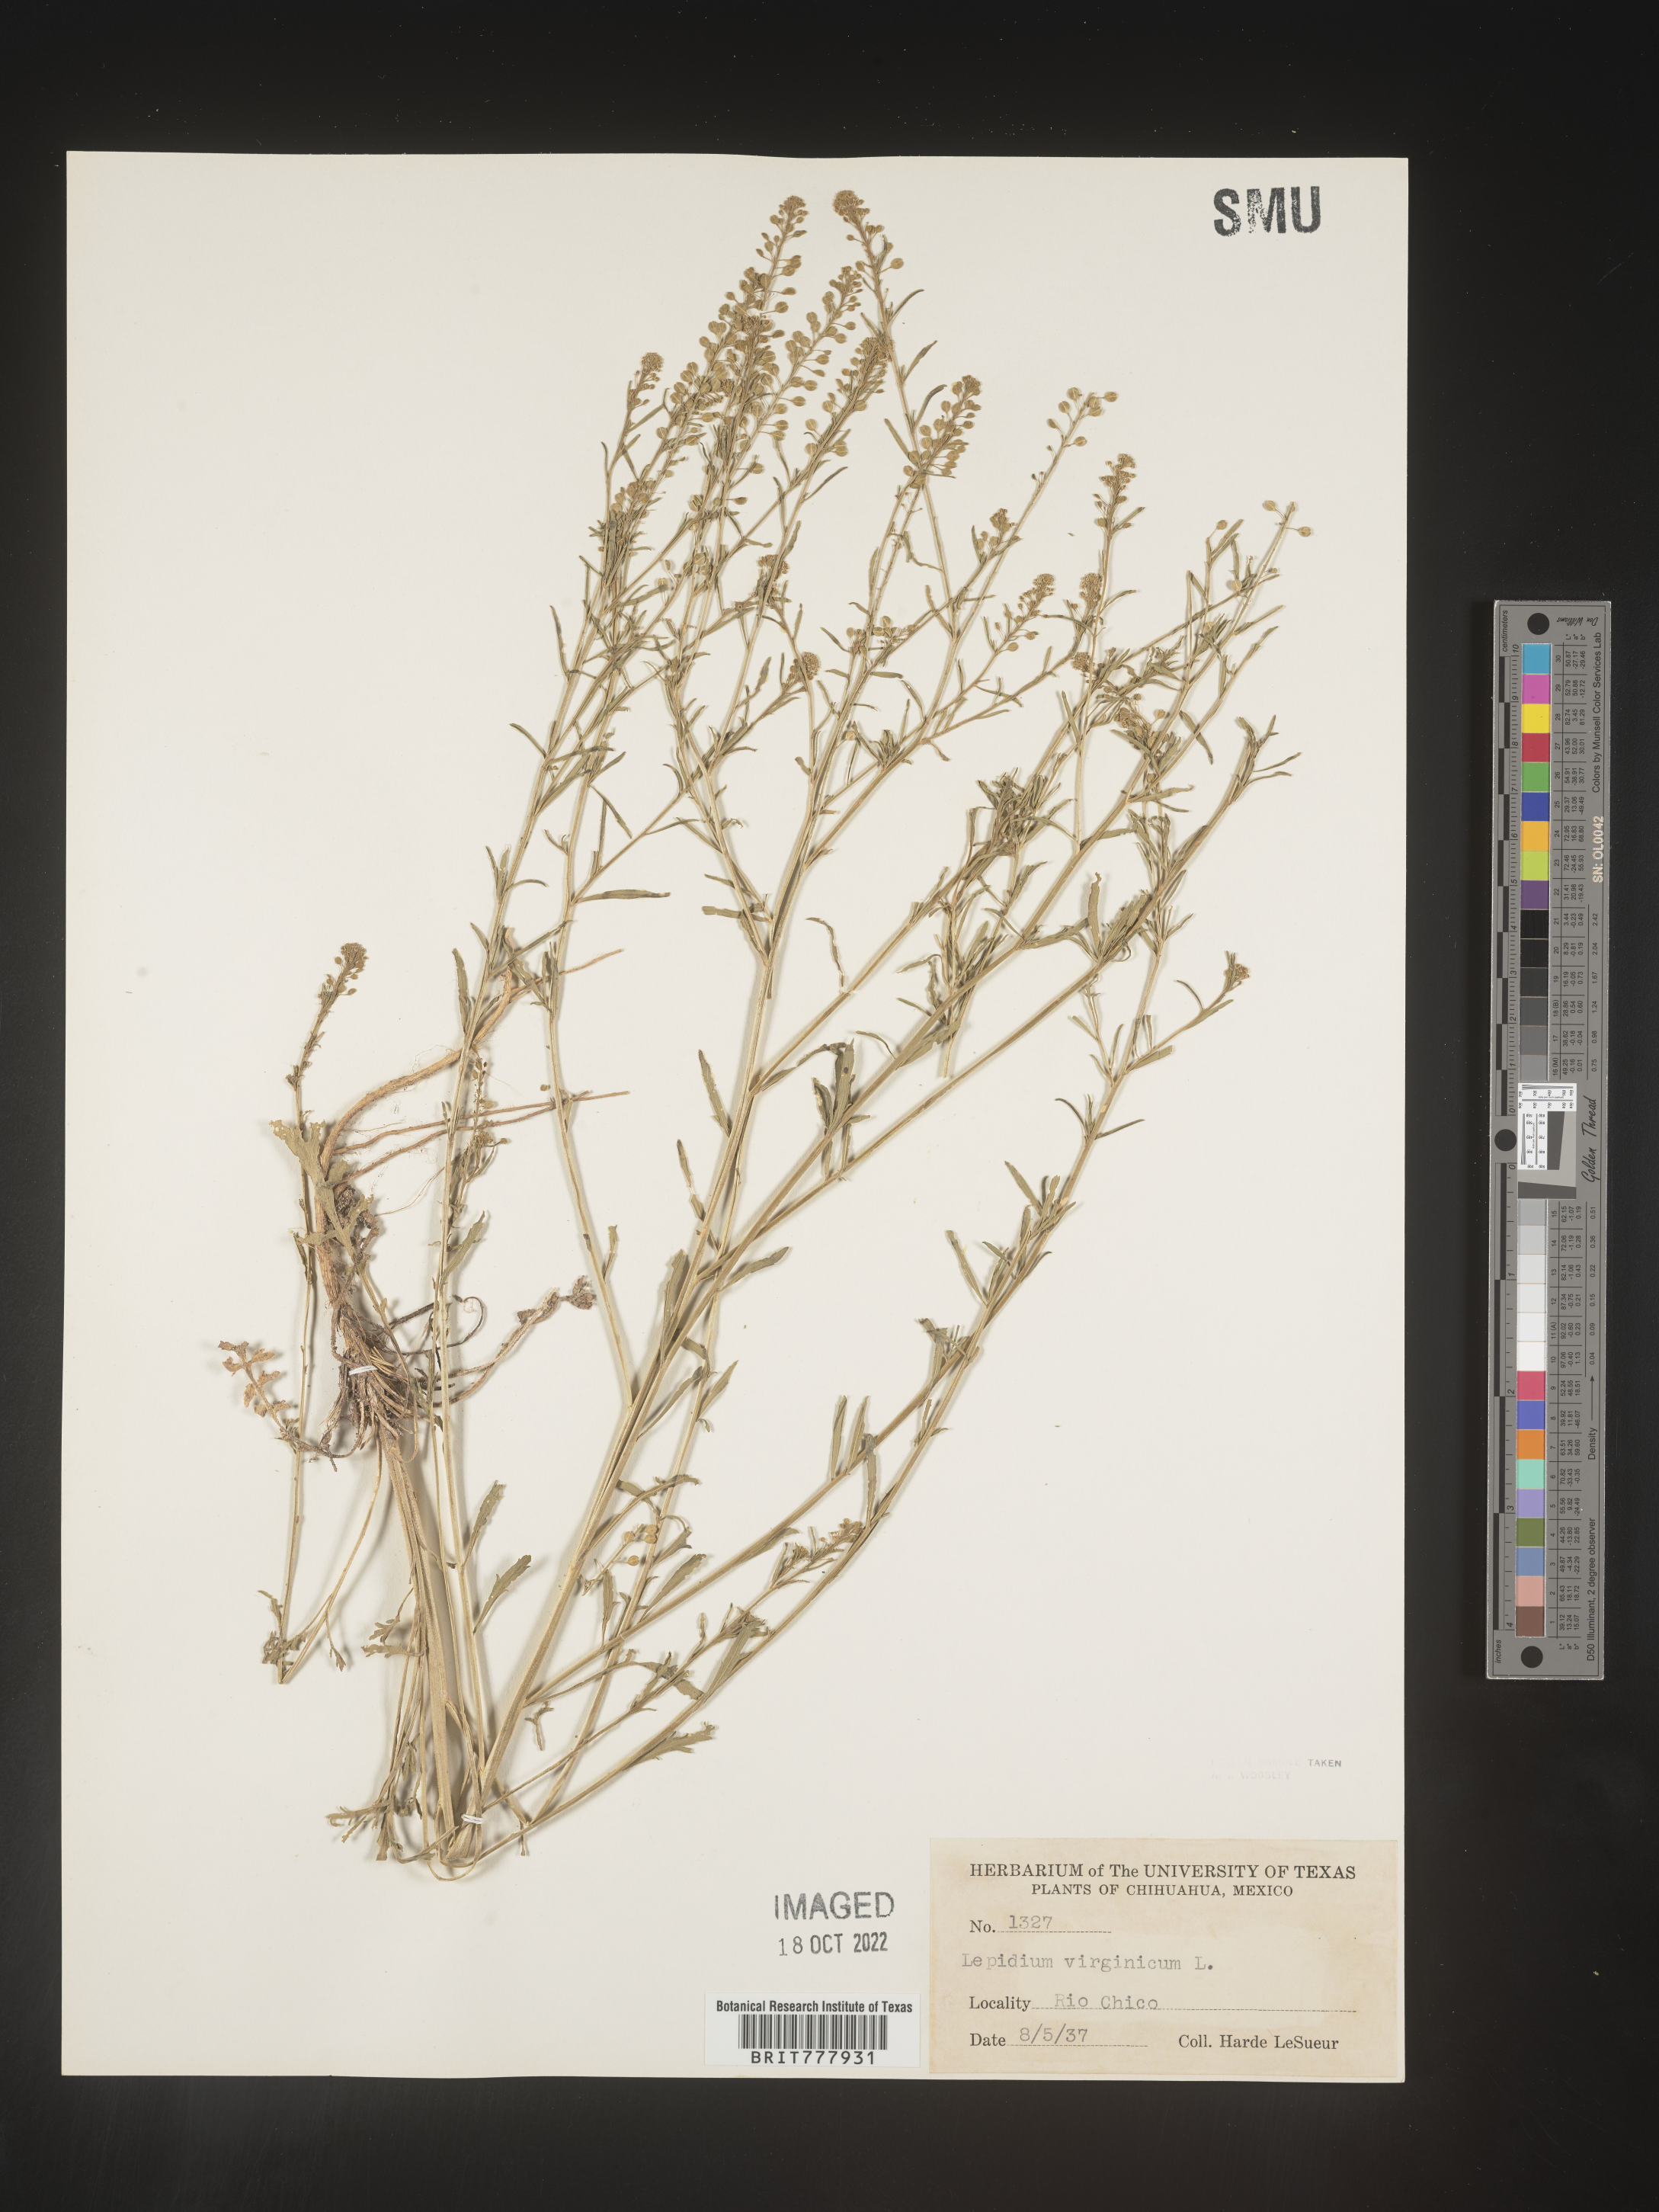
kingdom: Plantae
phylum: Tracheophyta
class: Magnoliopsida
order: Brassicales
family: Brassicaceae
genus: Lepidium
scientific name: Lepidium
